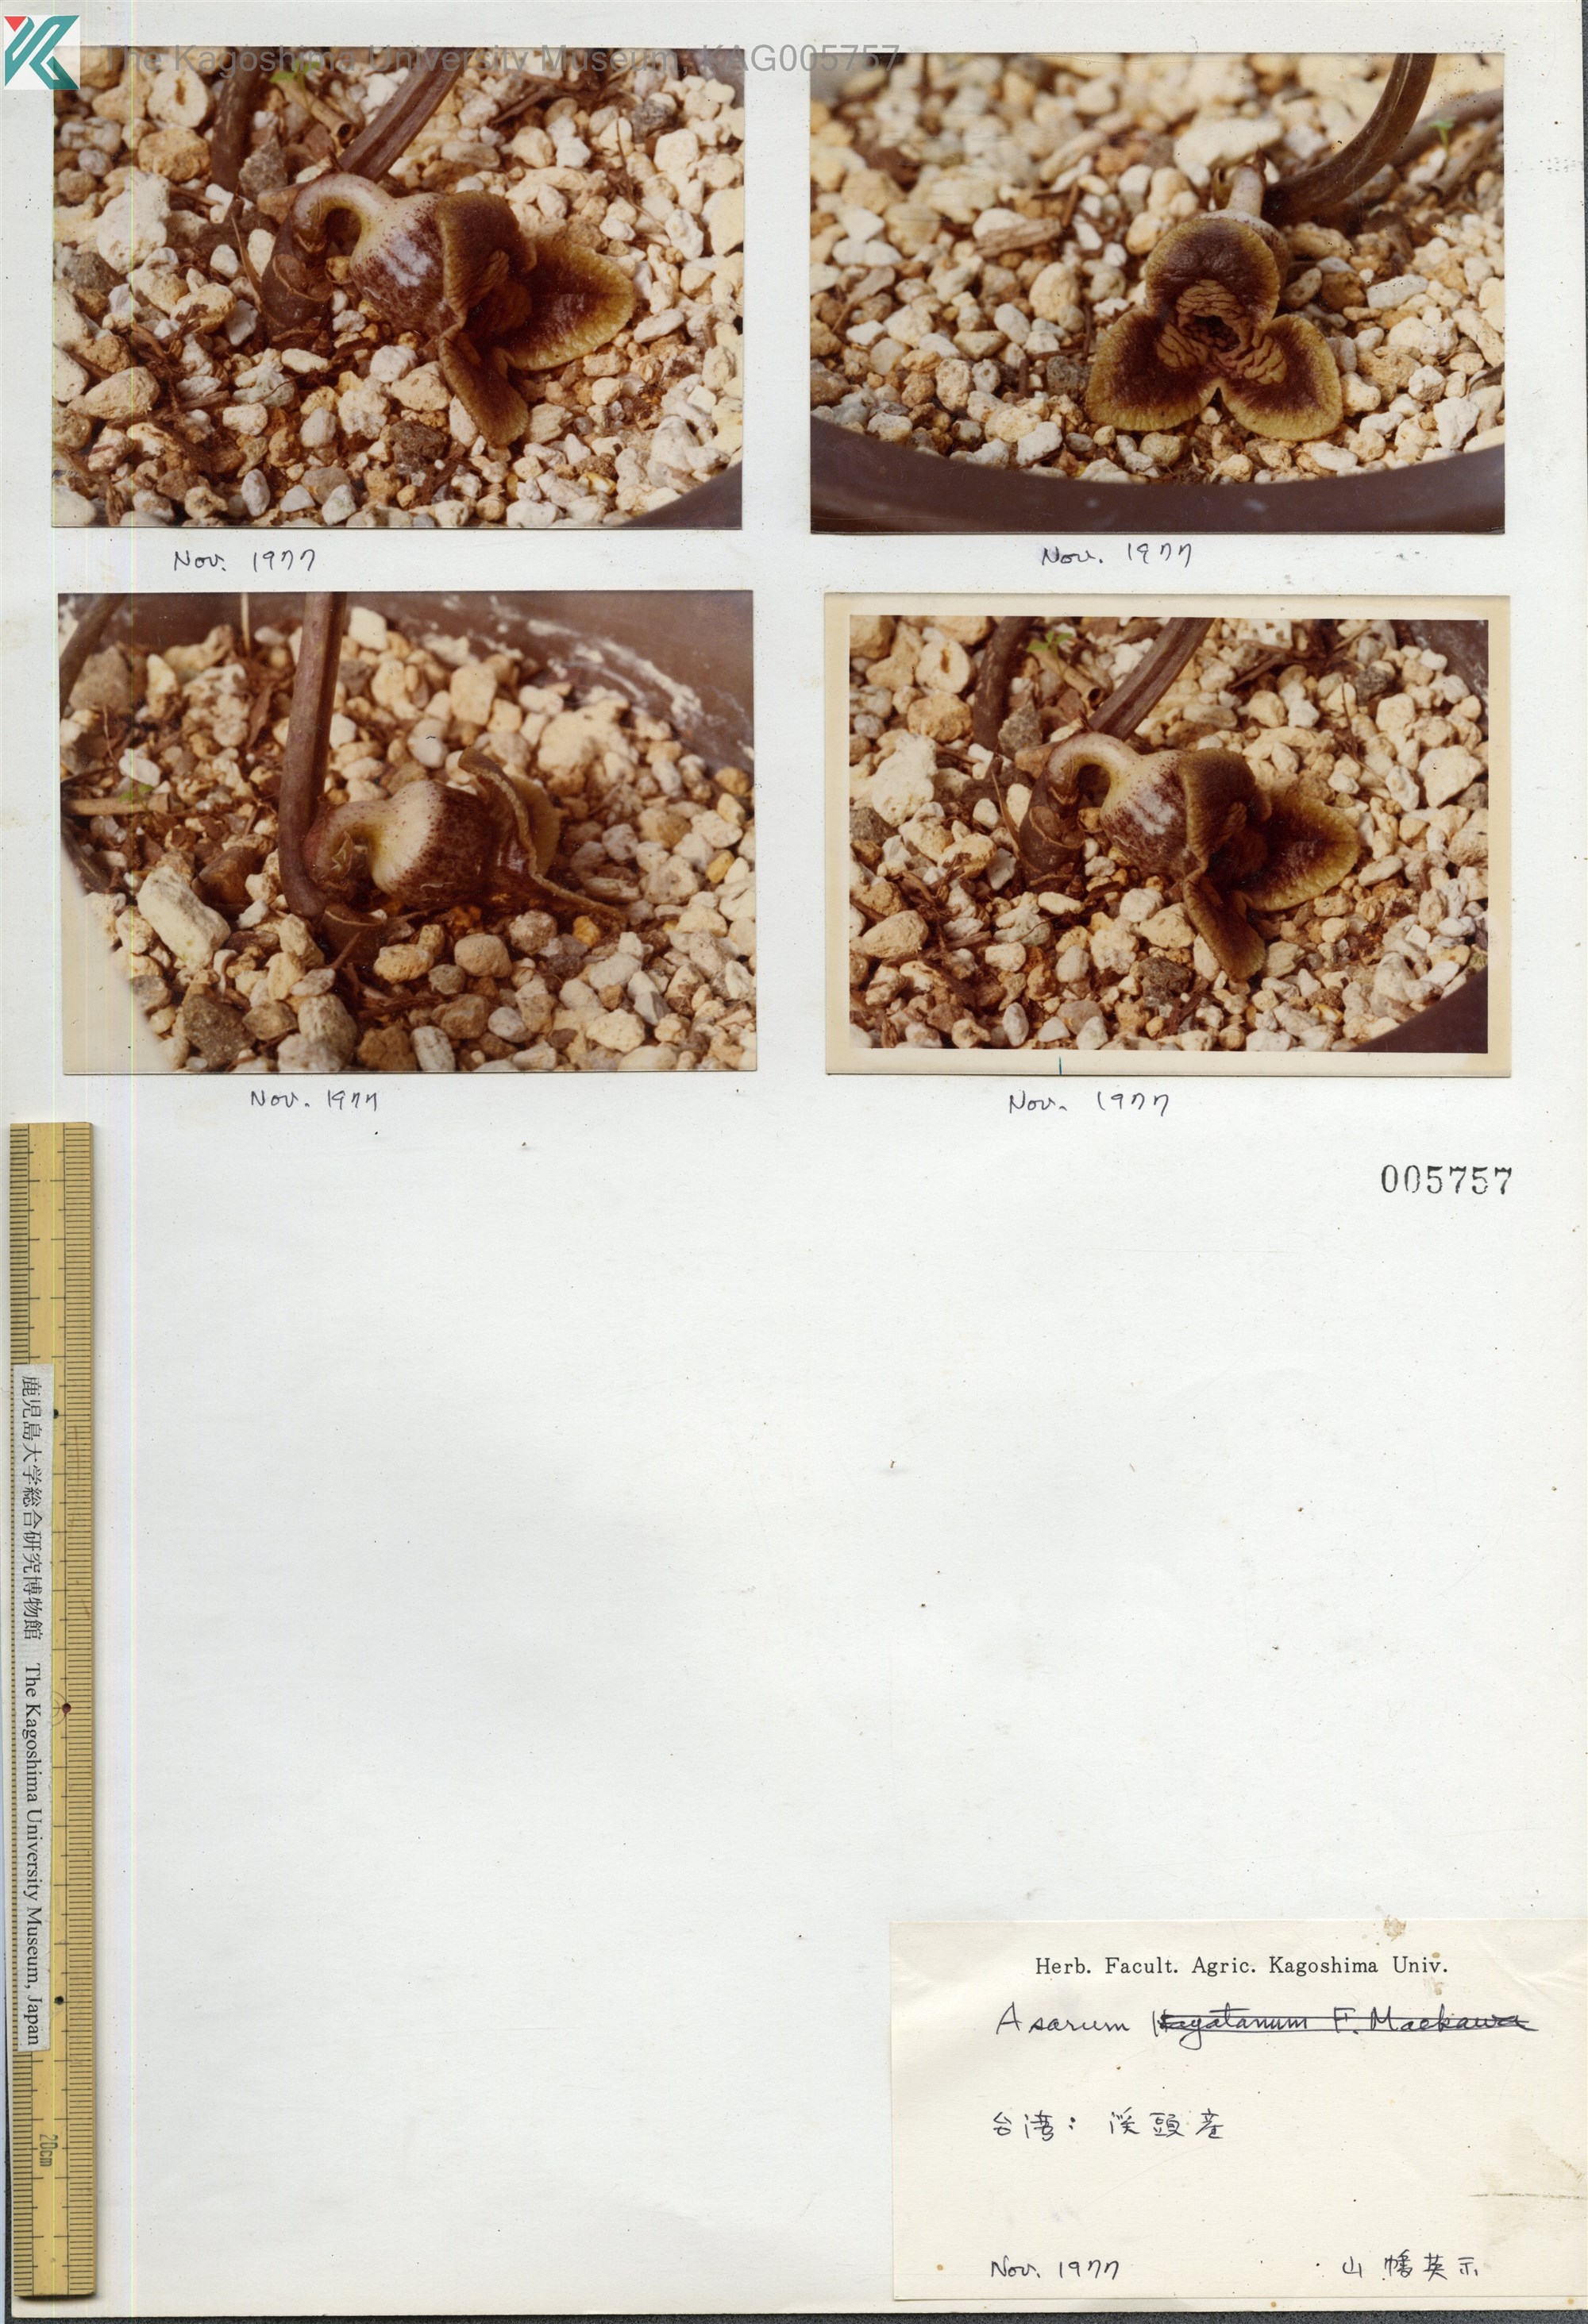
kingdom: Plantae
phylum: Tracheophyta
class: Magnoliopsida
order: Piperales
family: Aristolochiaceae
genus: Asarum
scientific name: Asarum
